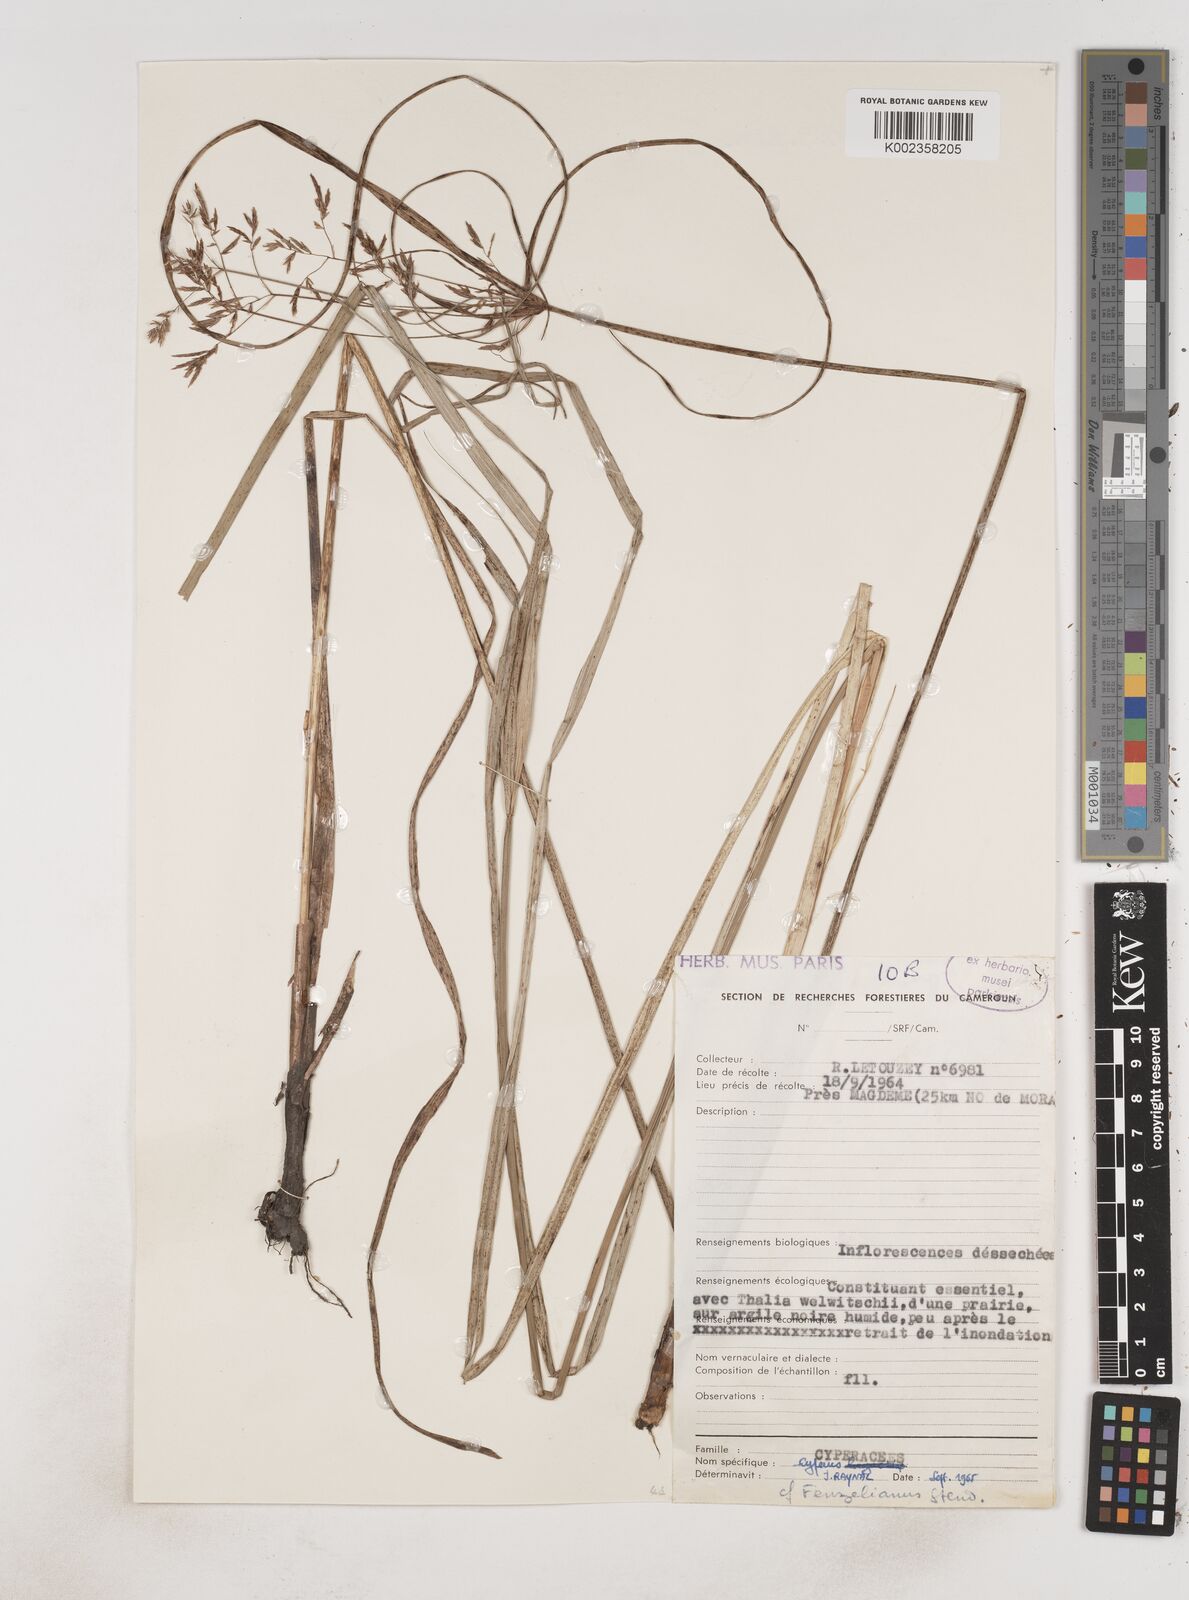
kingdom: Plantae
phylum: Tracheophyta
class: Liliopsida
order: Poales
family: Cyperaceae
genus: Cyperus
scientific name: Cyperus longus
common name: Galingale
